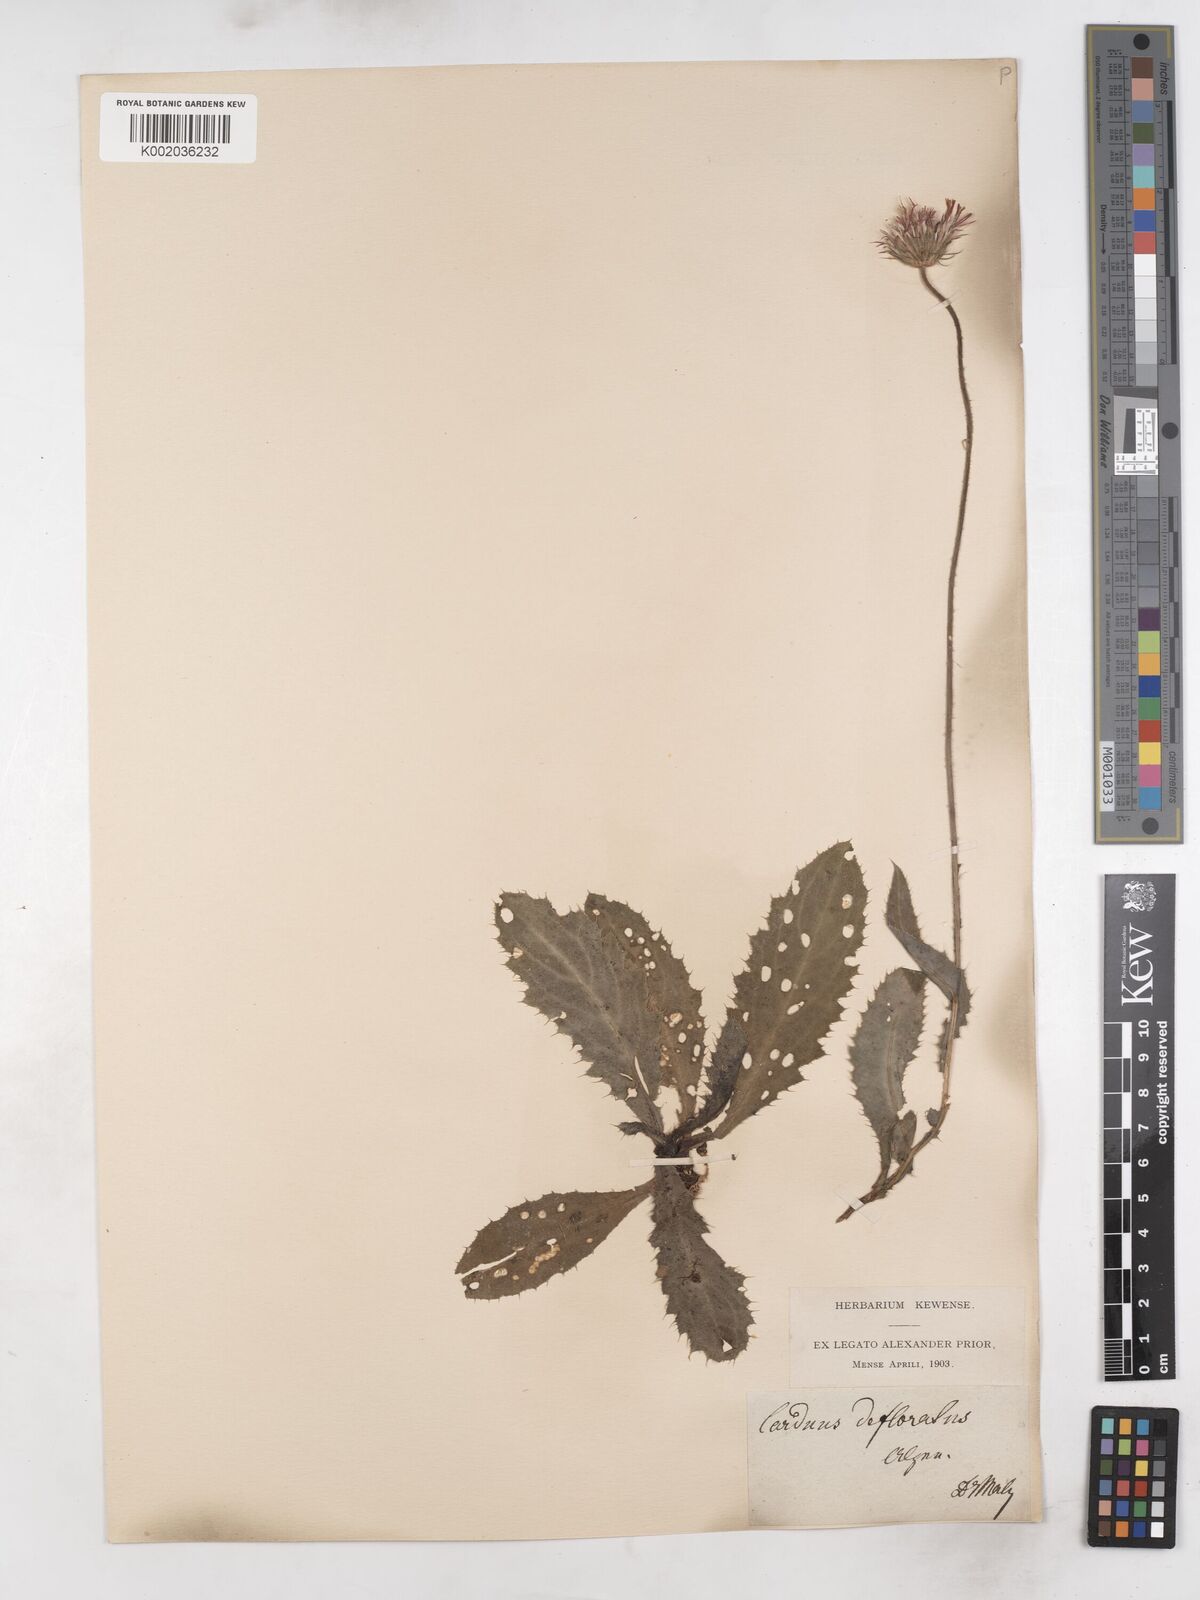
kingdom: Plantae
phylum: Tracheophyta
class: Magnoliopsida
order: Asterales
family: Asteraceae
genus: Carduus
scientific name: Carduus defloratus
